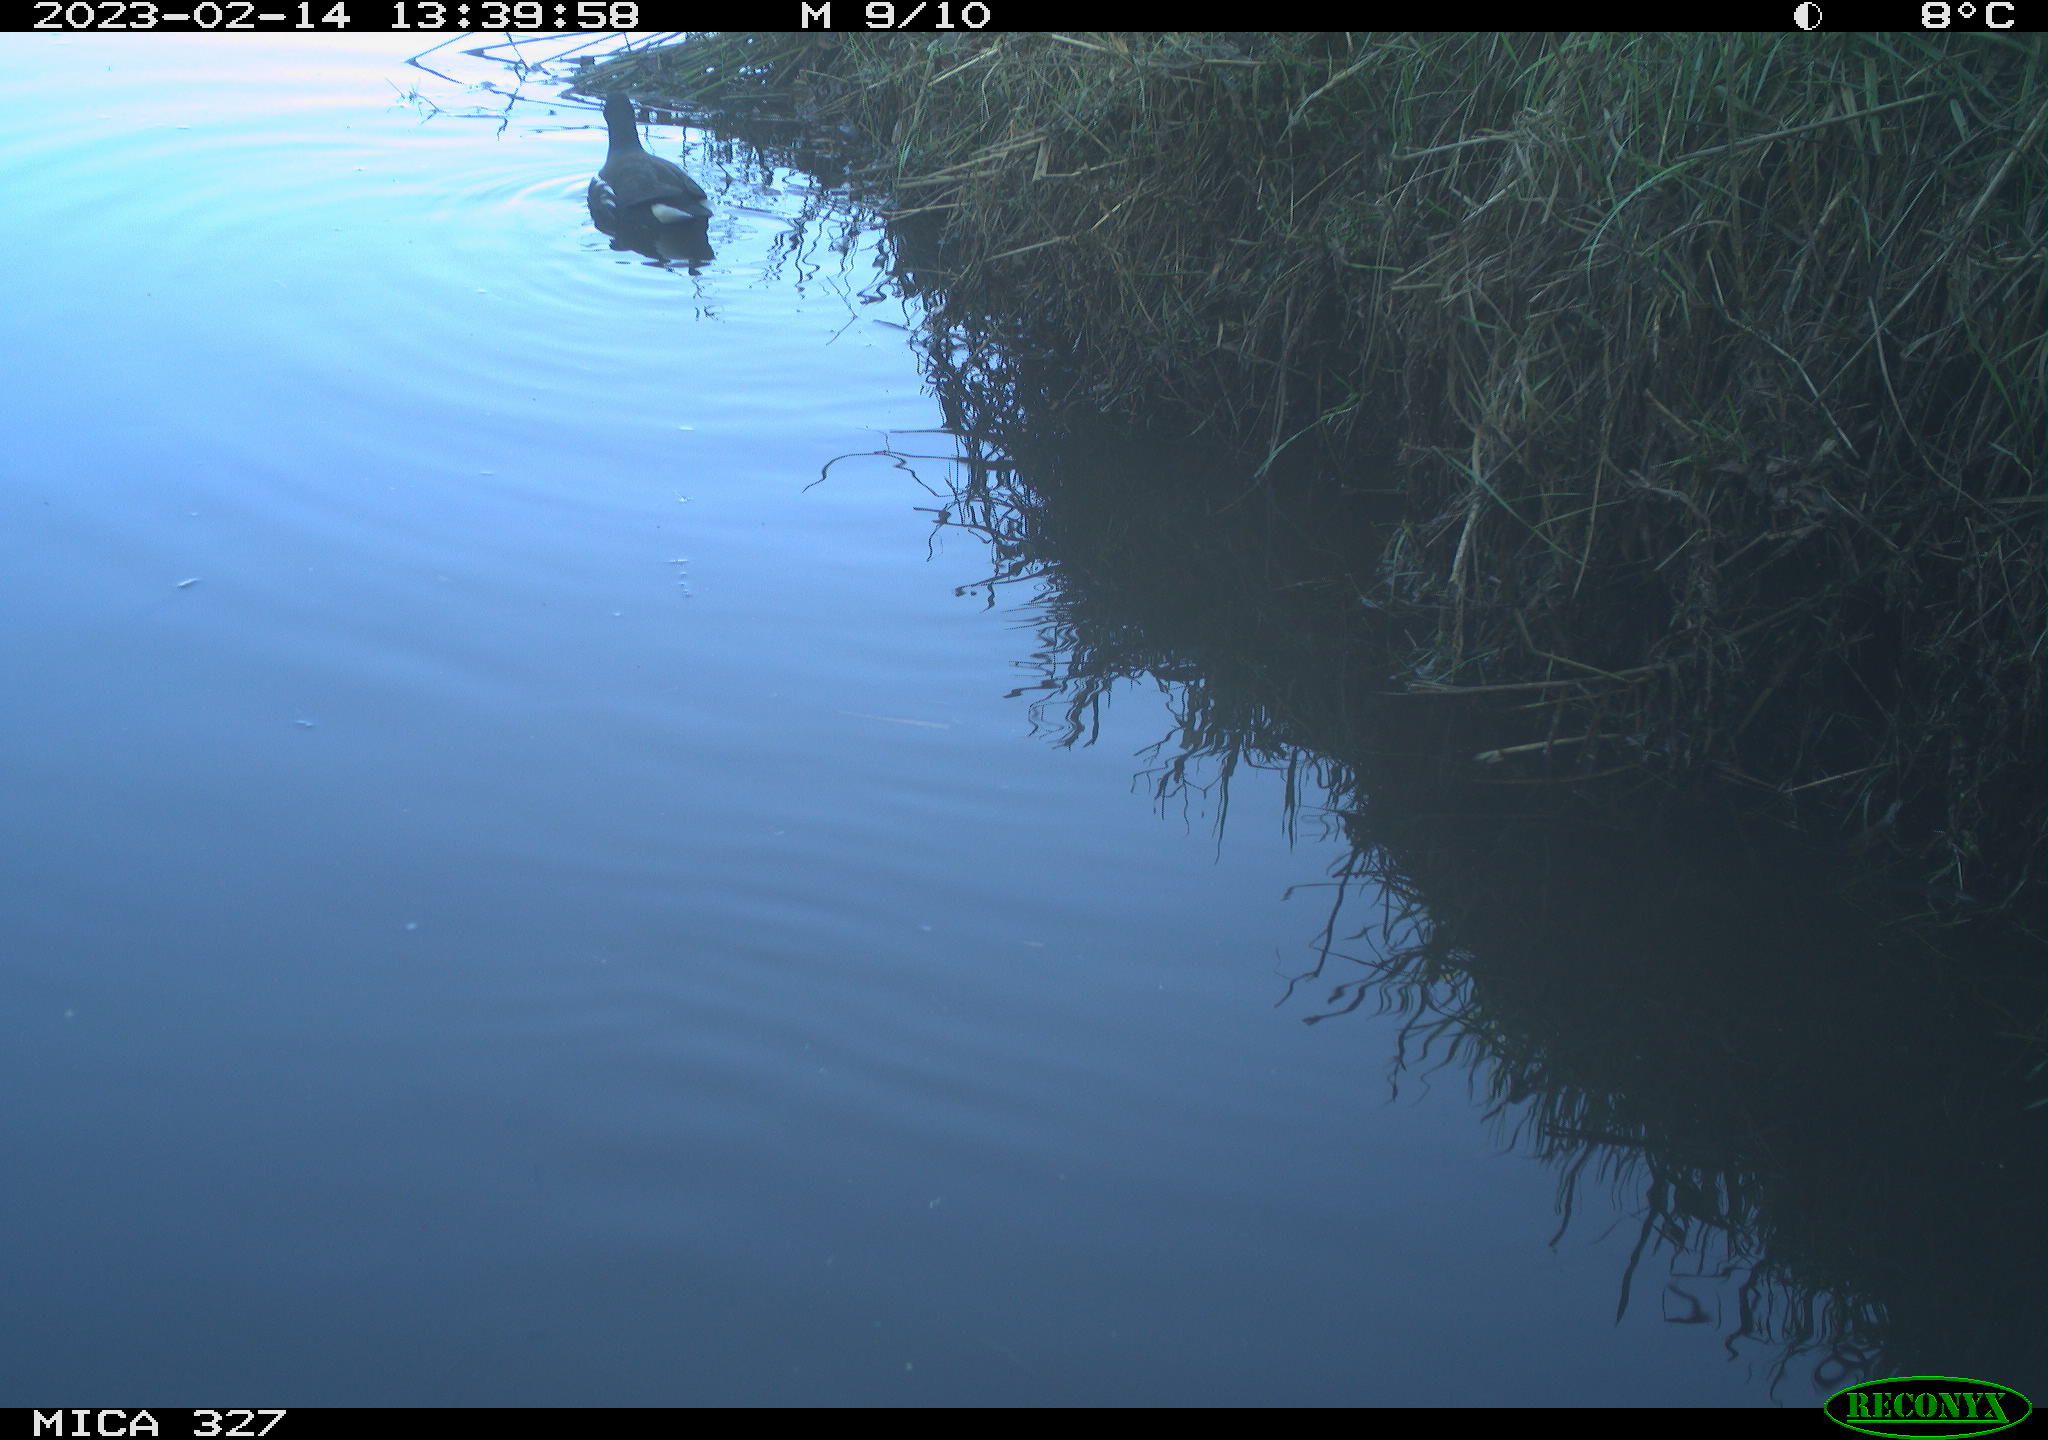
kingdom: Animalia
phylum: Chordata
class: Aves
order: Gruiformes
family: Rallidae
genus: Gallinula
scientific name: Gallinula chloropus
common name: Common moorhen
